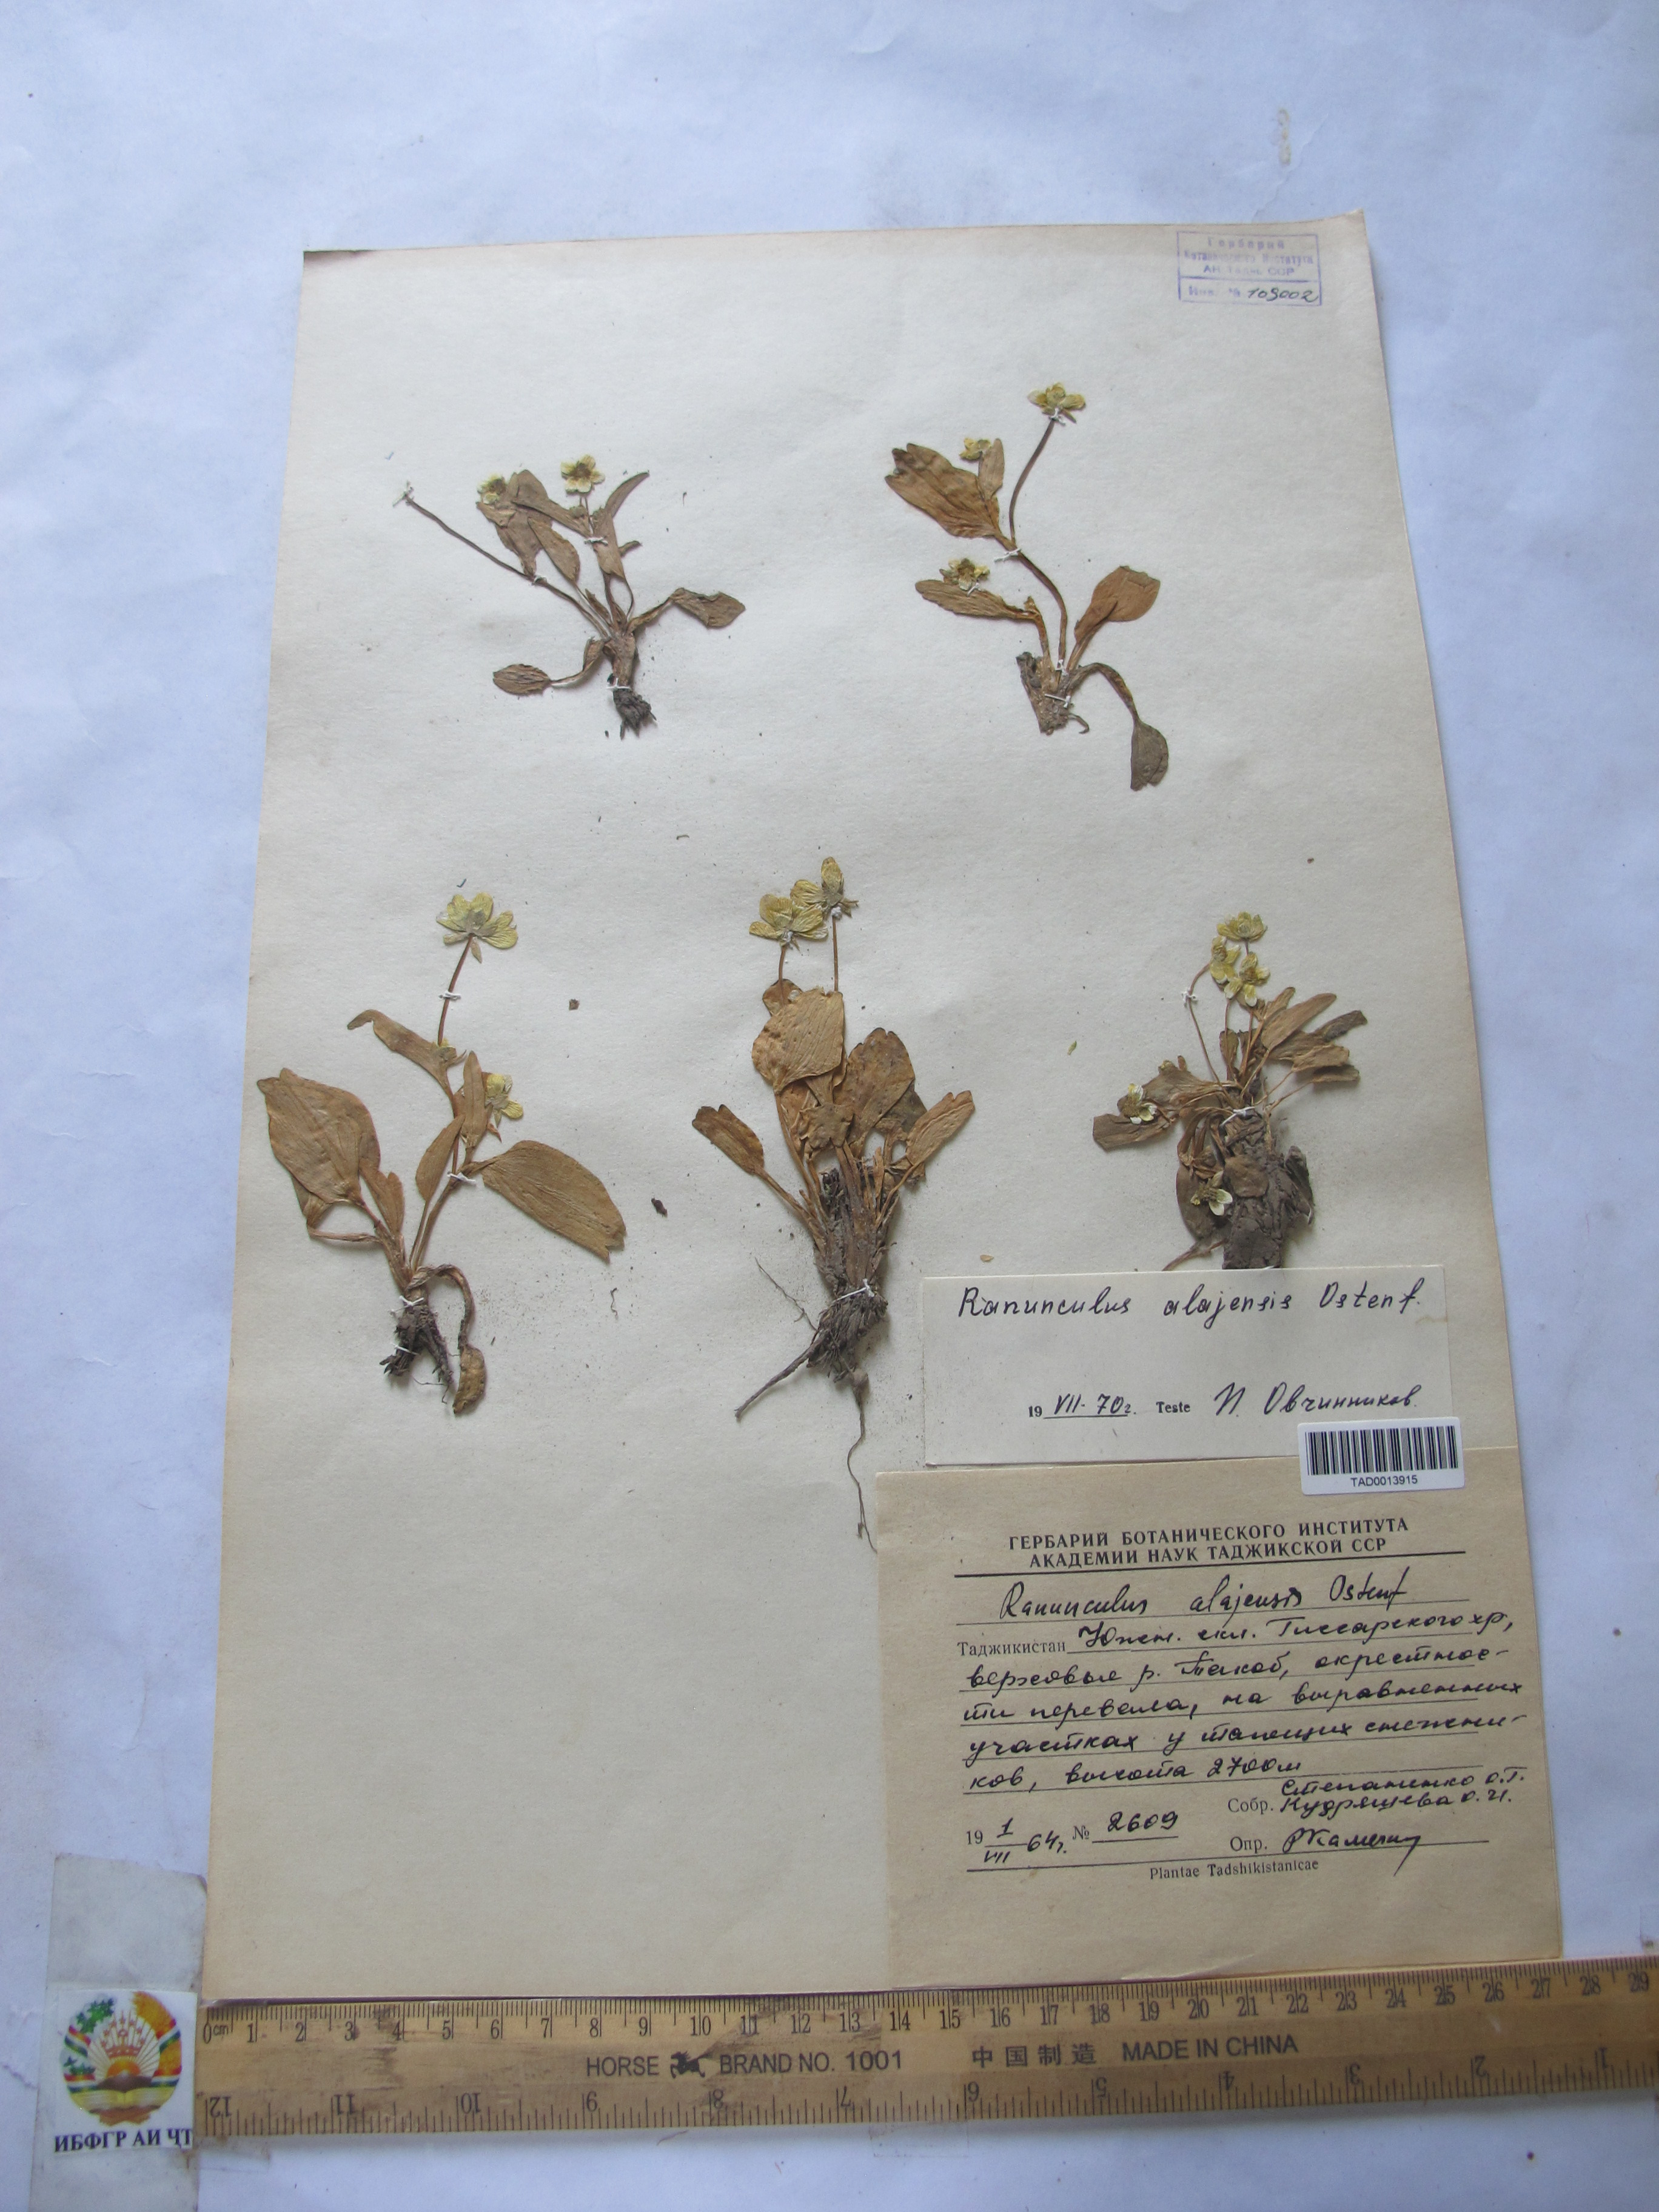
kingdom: Plantae
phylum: Tracheophyta
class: Magnoliopsida
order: Ranunculales
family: Ranunculaceae
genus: Ranunculus
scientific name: Ranunculus alaiensis
